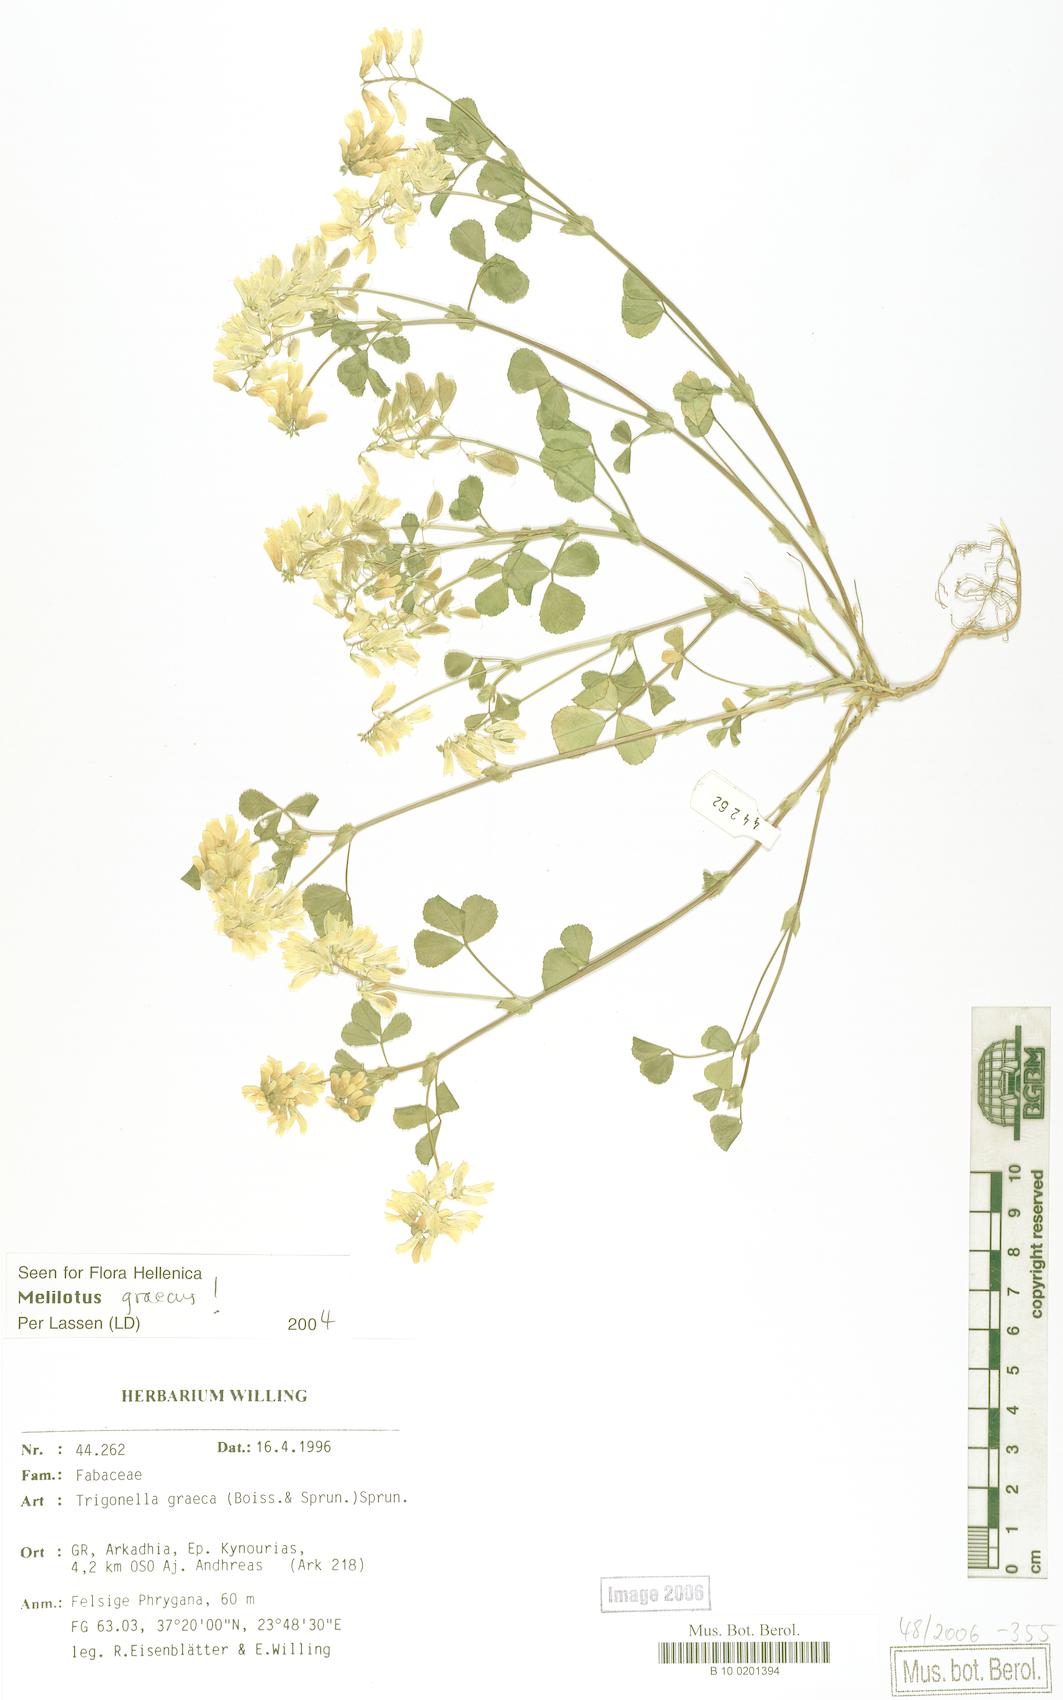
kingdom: Plantae
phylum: Tracheophyta
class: Magnoliopsida
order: Fabales
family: Fabaceae
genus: Trigonella
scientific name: Trigonella graeca
